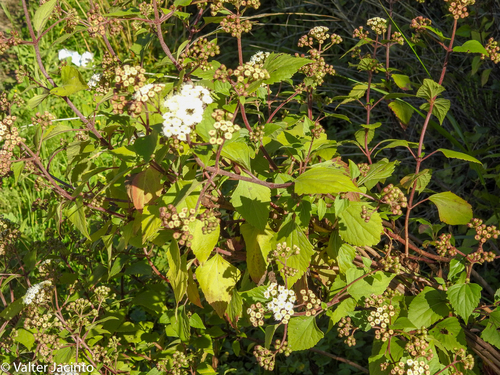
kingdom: Plantae
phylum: Tracheophyta
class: Magnoliopsida
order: Asterales
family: Asteraceae
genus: Ageratina
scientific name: Ageratina adenophora
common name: Sticky snakeroot
